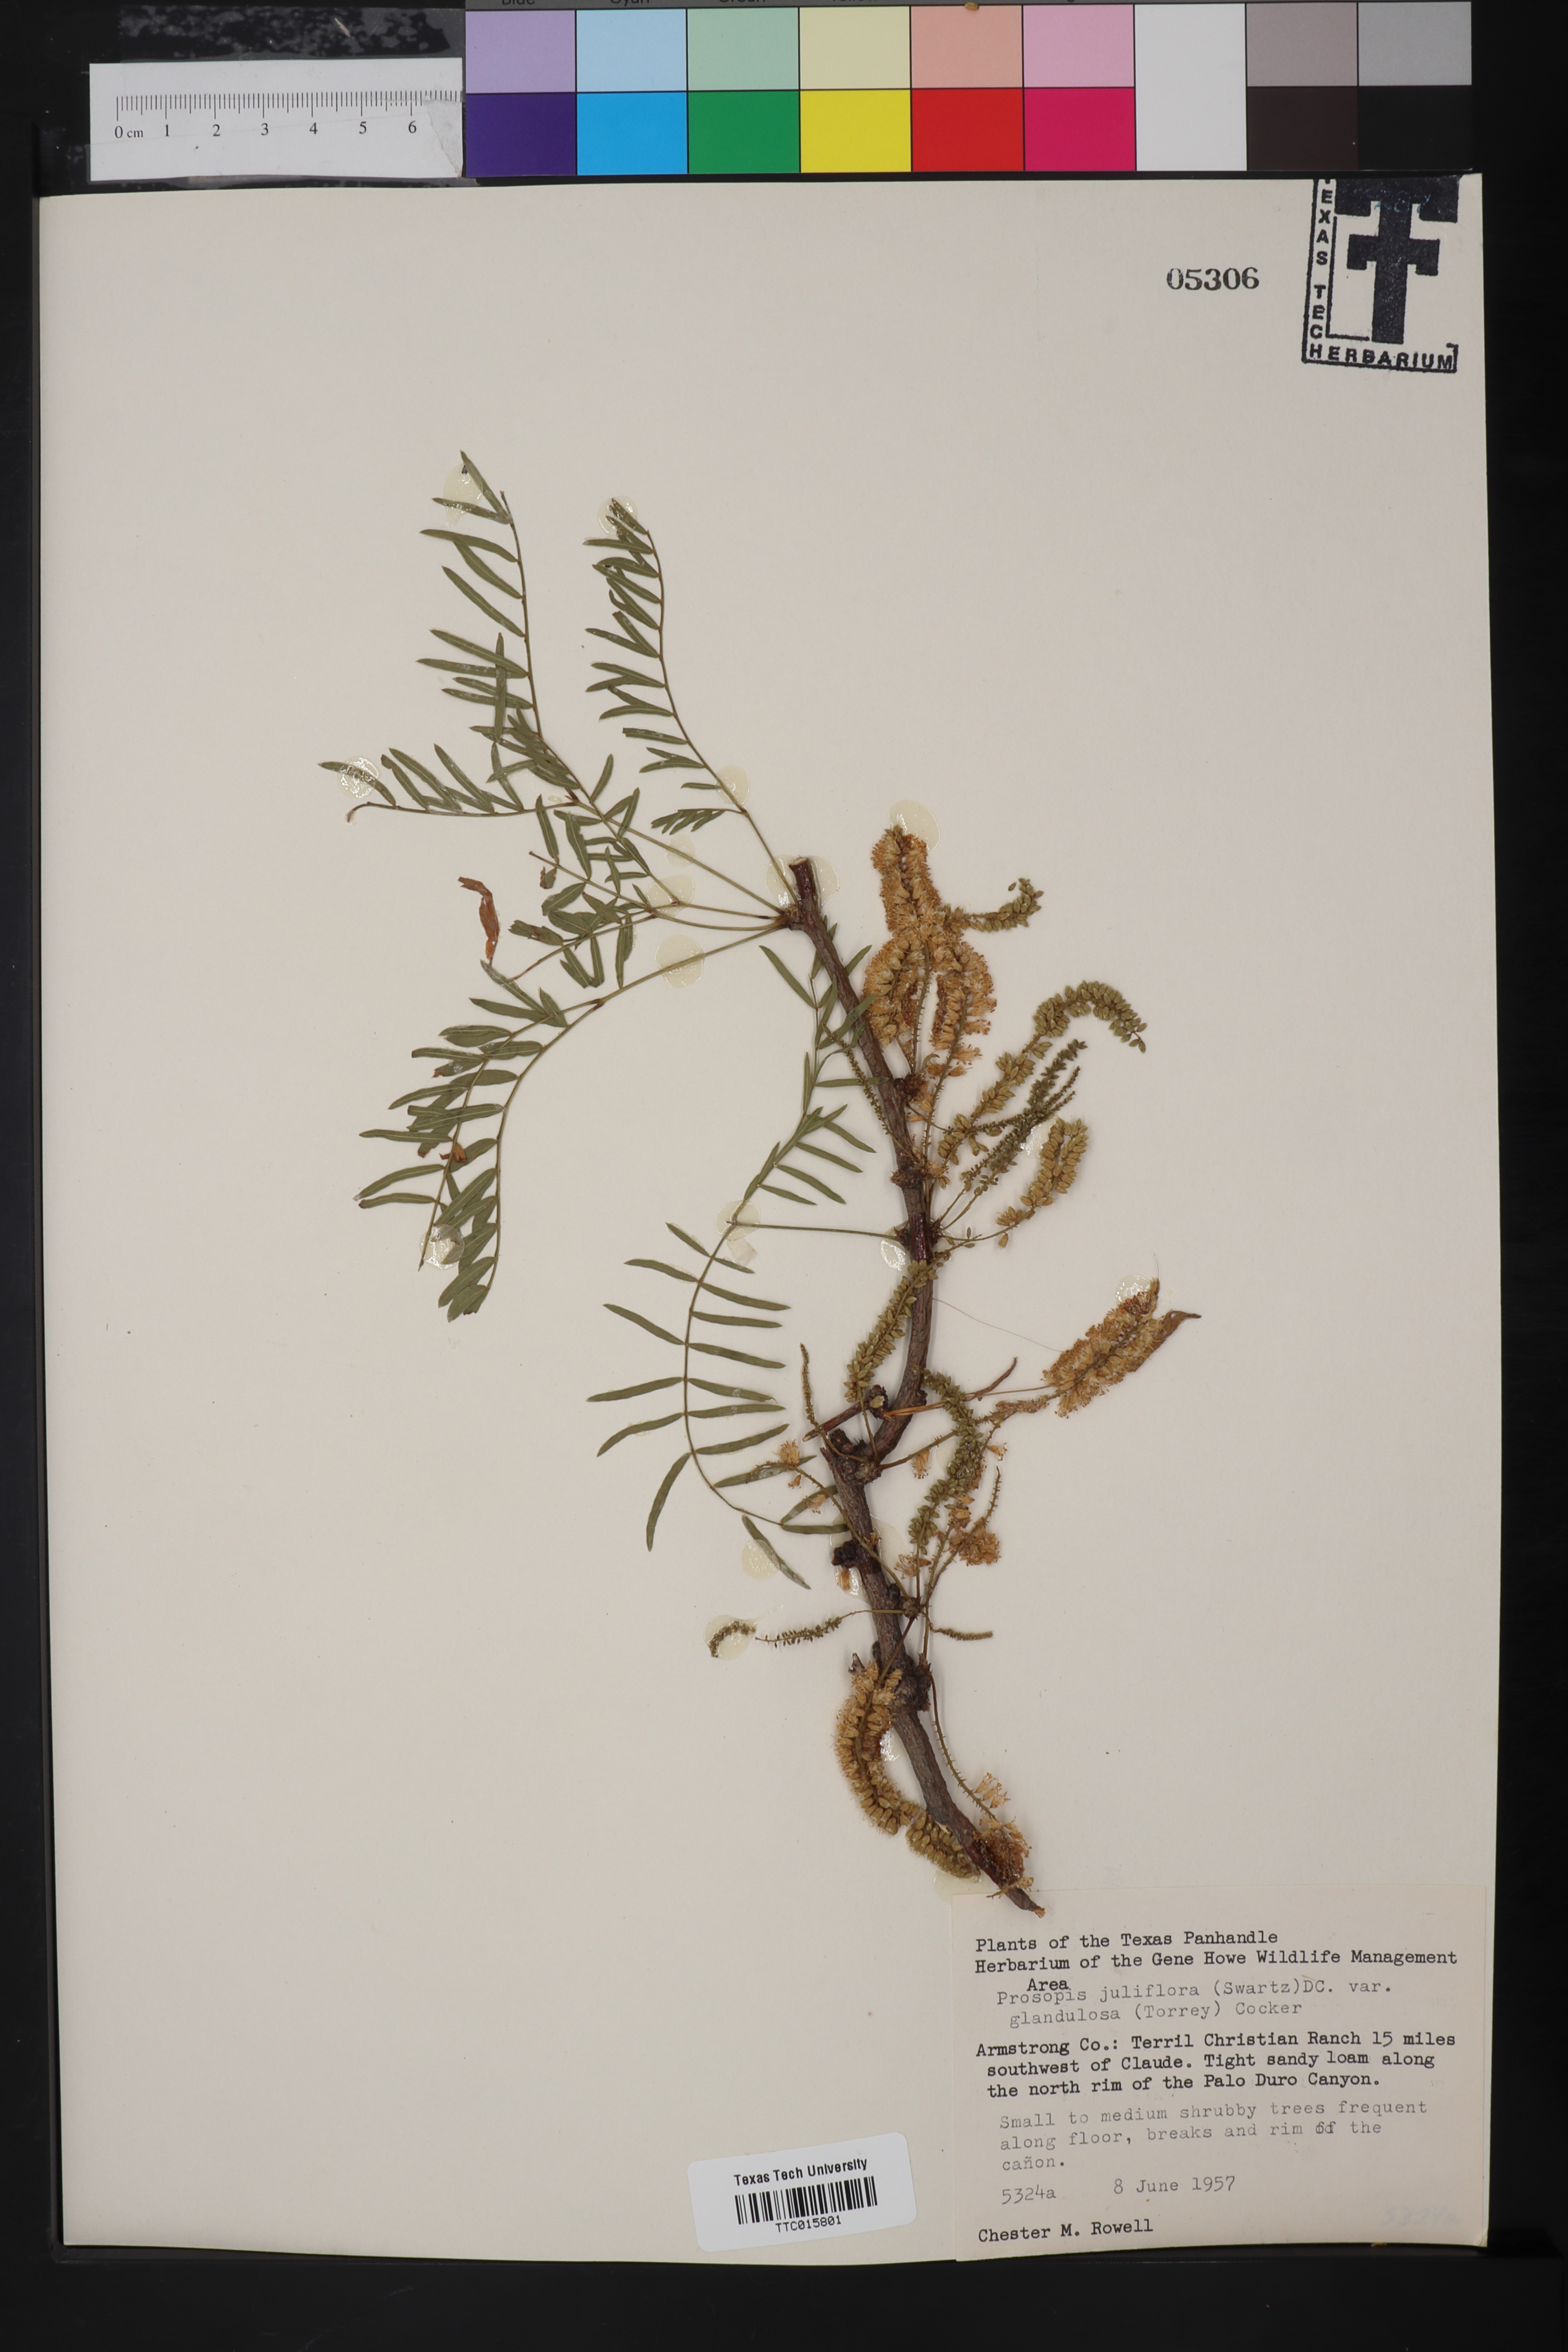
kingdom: Plantae
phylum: Tracheophyta
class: Magnoliopsida
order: Fabales
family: Fabaceae
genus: Prosopis
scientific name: Prosopis glandulosa
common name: Honey mesquite
